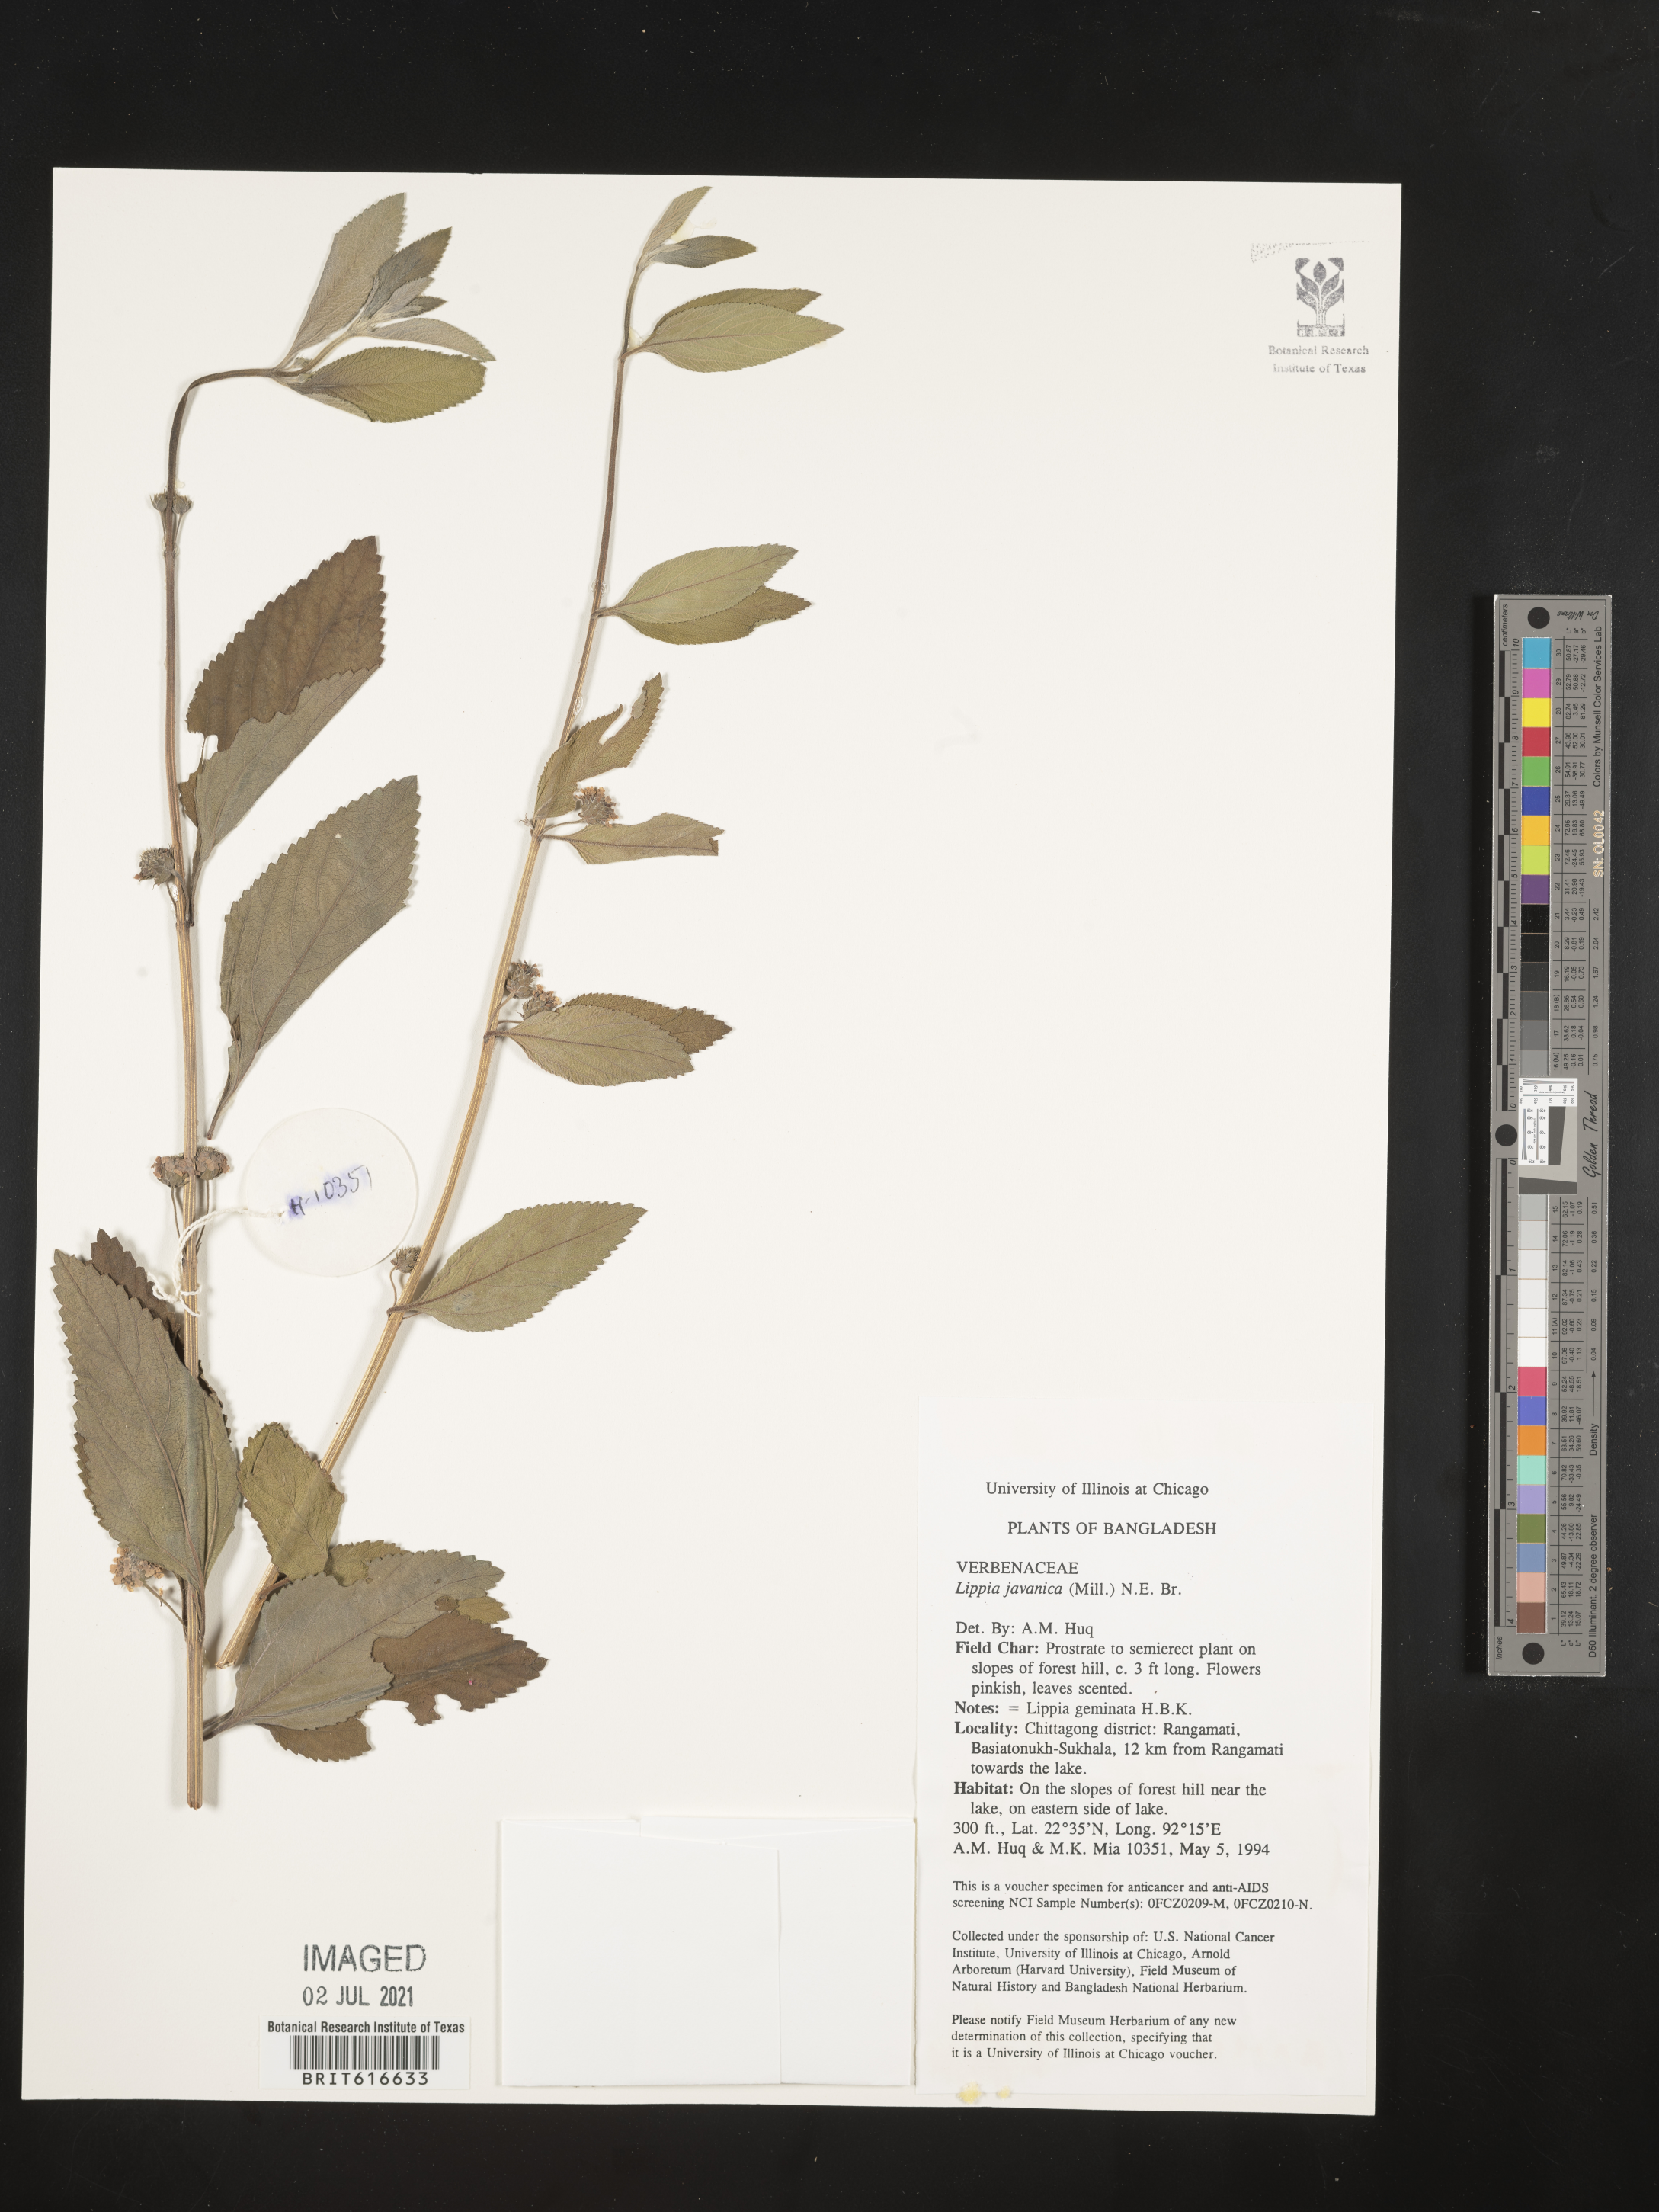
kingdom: Plantae
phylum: Tracheophyta
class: Magnoliopsida
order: Lamiales
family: Verbenaceae
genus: Lippia
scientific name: Lippia javanica
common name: Lemonbush
